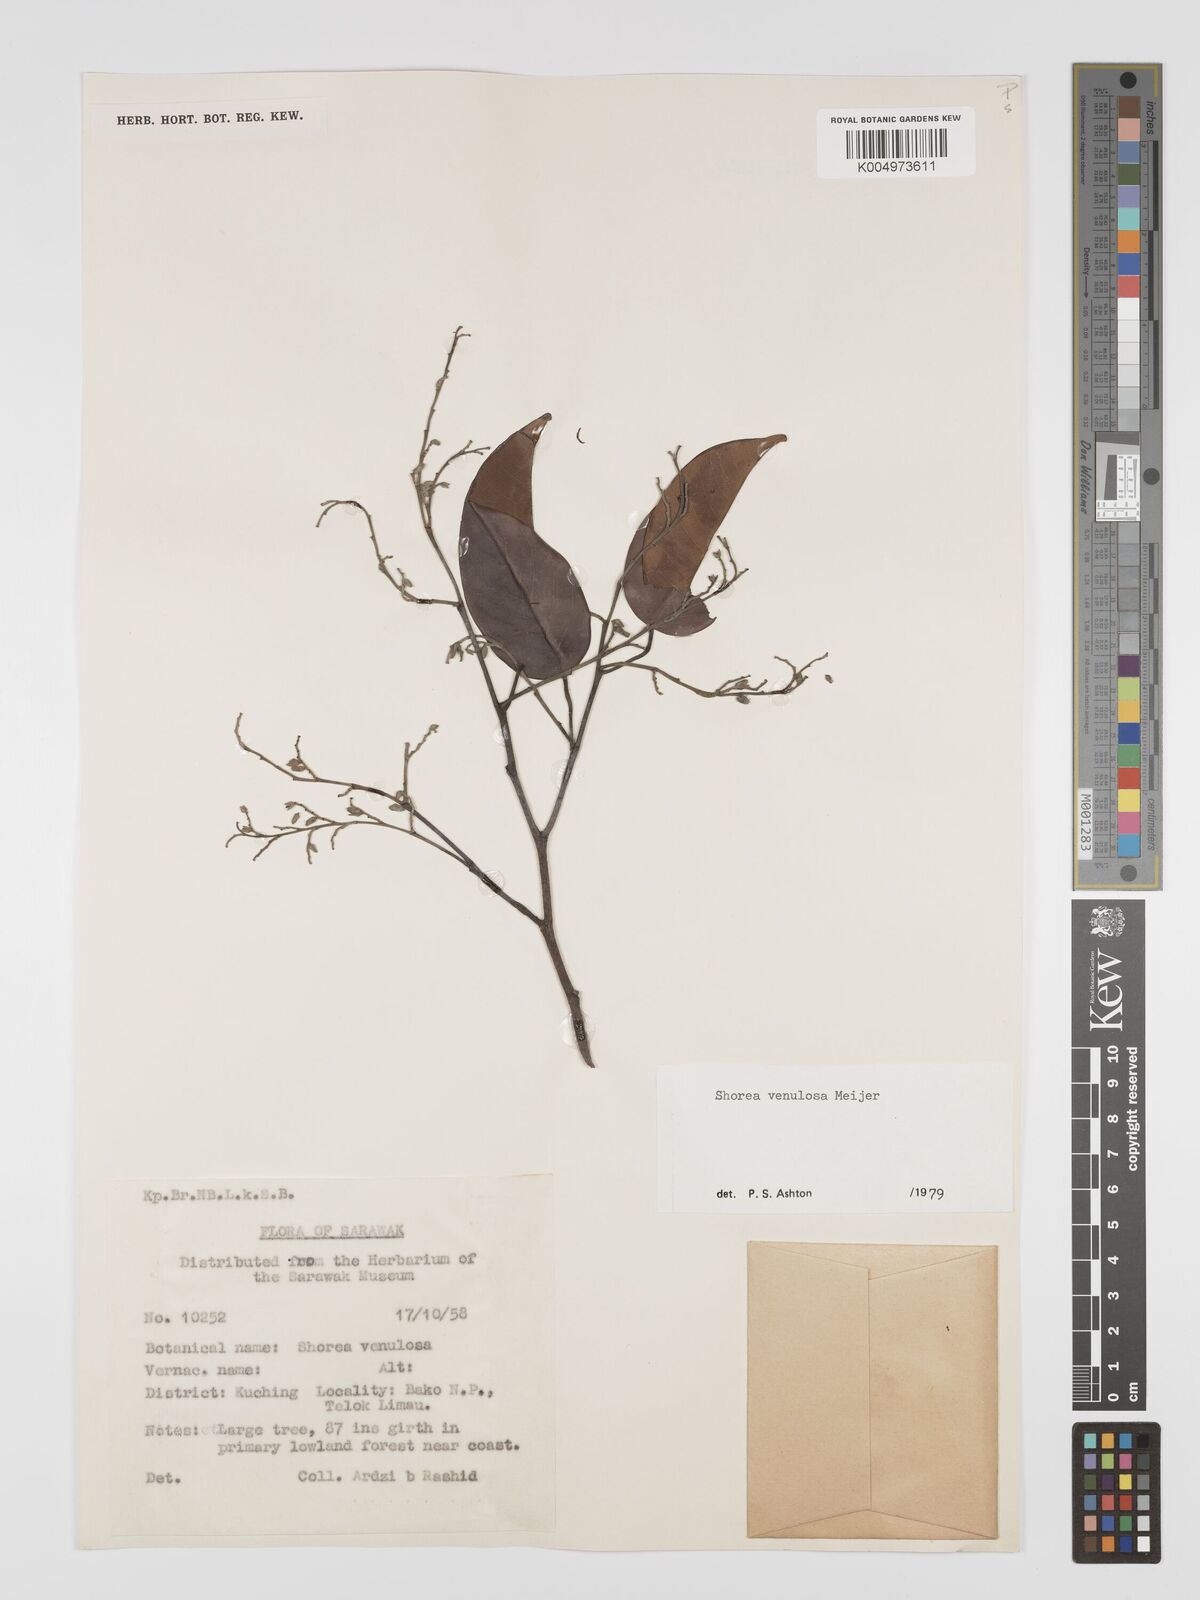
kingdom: Plantae
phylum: Tracheophyta
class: Magnoliopsida
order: Malvales
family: Dipterocarpaceae
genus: Shorea
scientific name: Shorea venulosa
